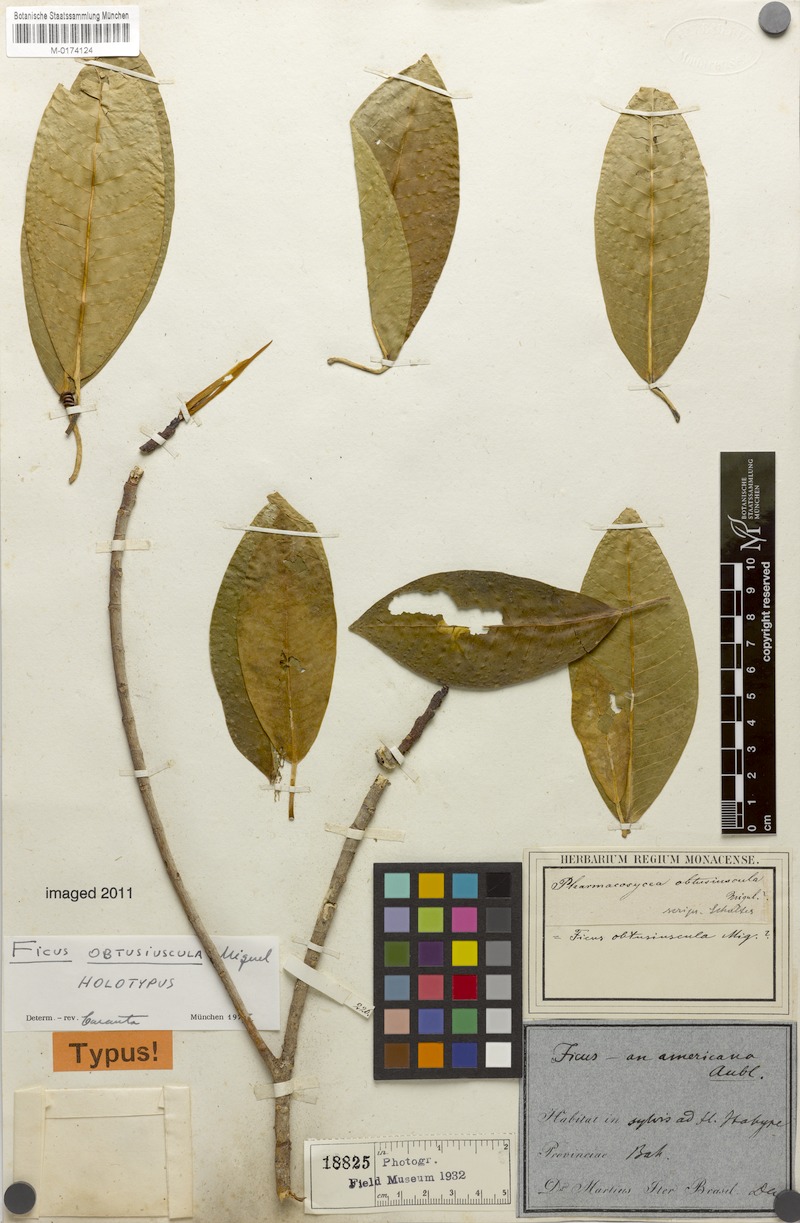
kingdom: Plantae
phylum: Tracheophyta
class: Magnoliopsida
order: Rosales
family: Moraceae
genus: Ficus
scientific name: Ficus obtusiuscula
